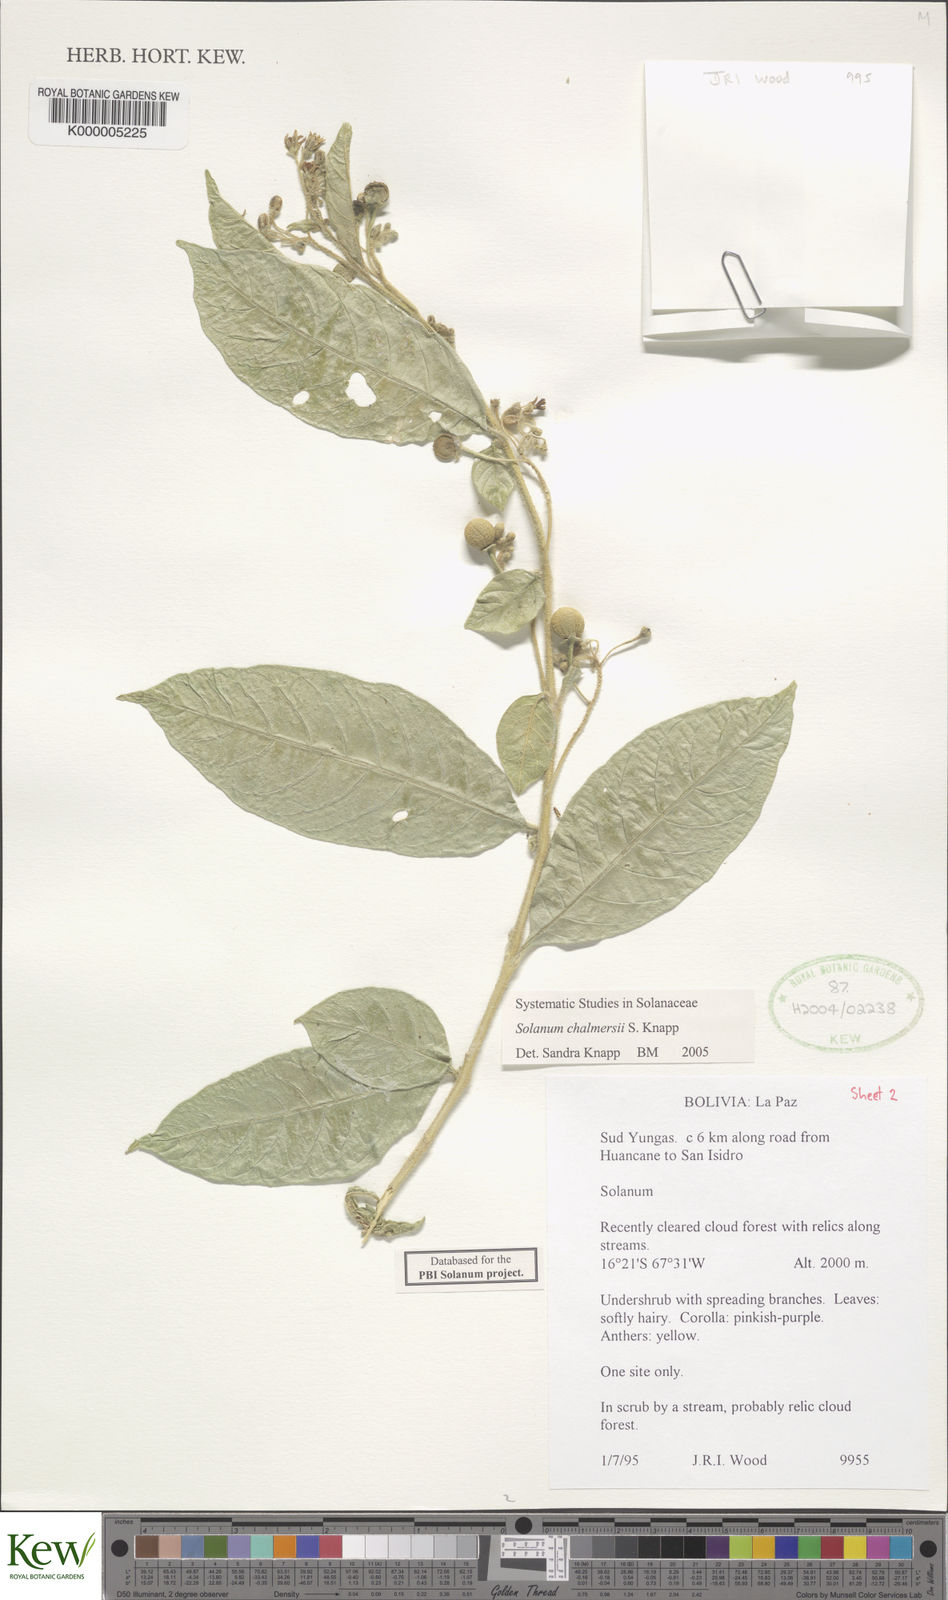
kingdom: Plantae
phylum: Tracheophyta
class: Magnoliopsida
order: Solanales
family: Solanaceae
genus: Solanum
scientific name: Solanum chalmersii
